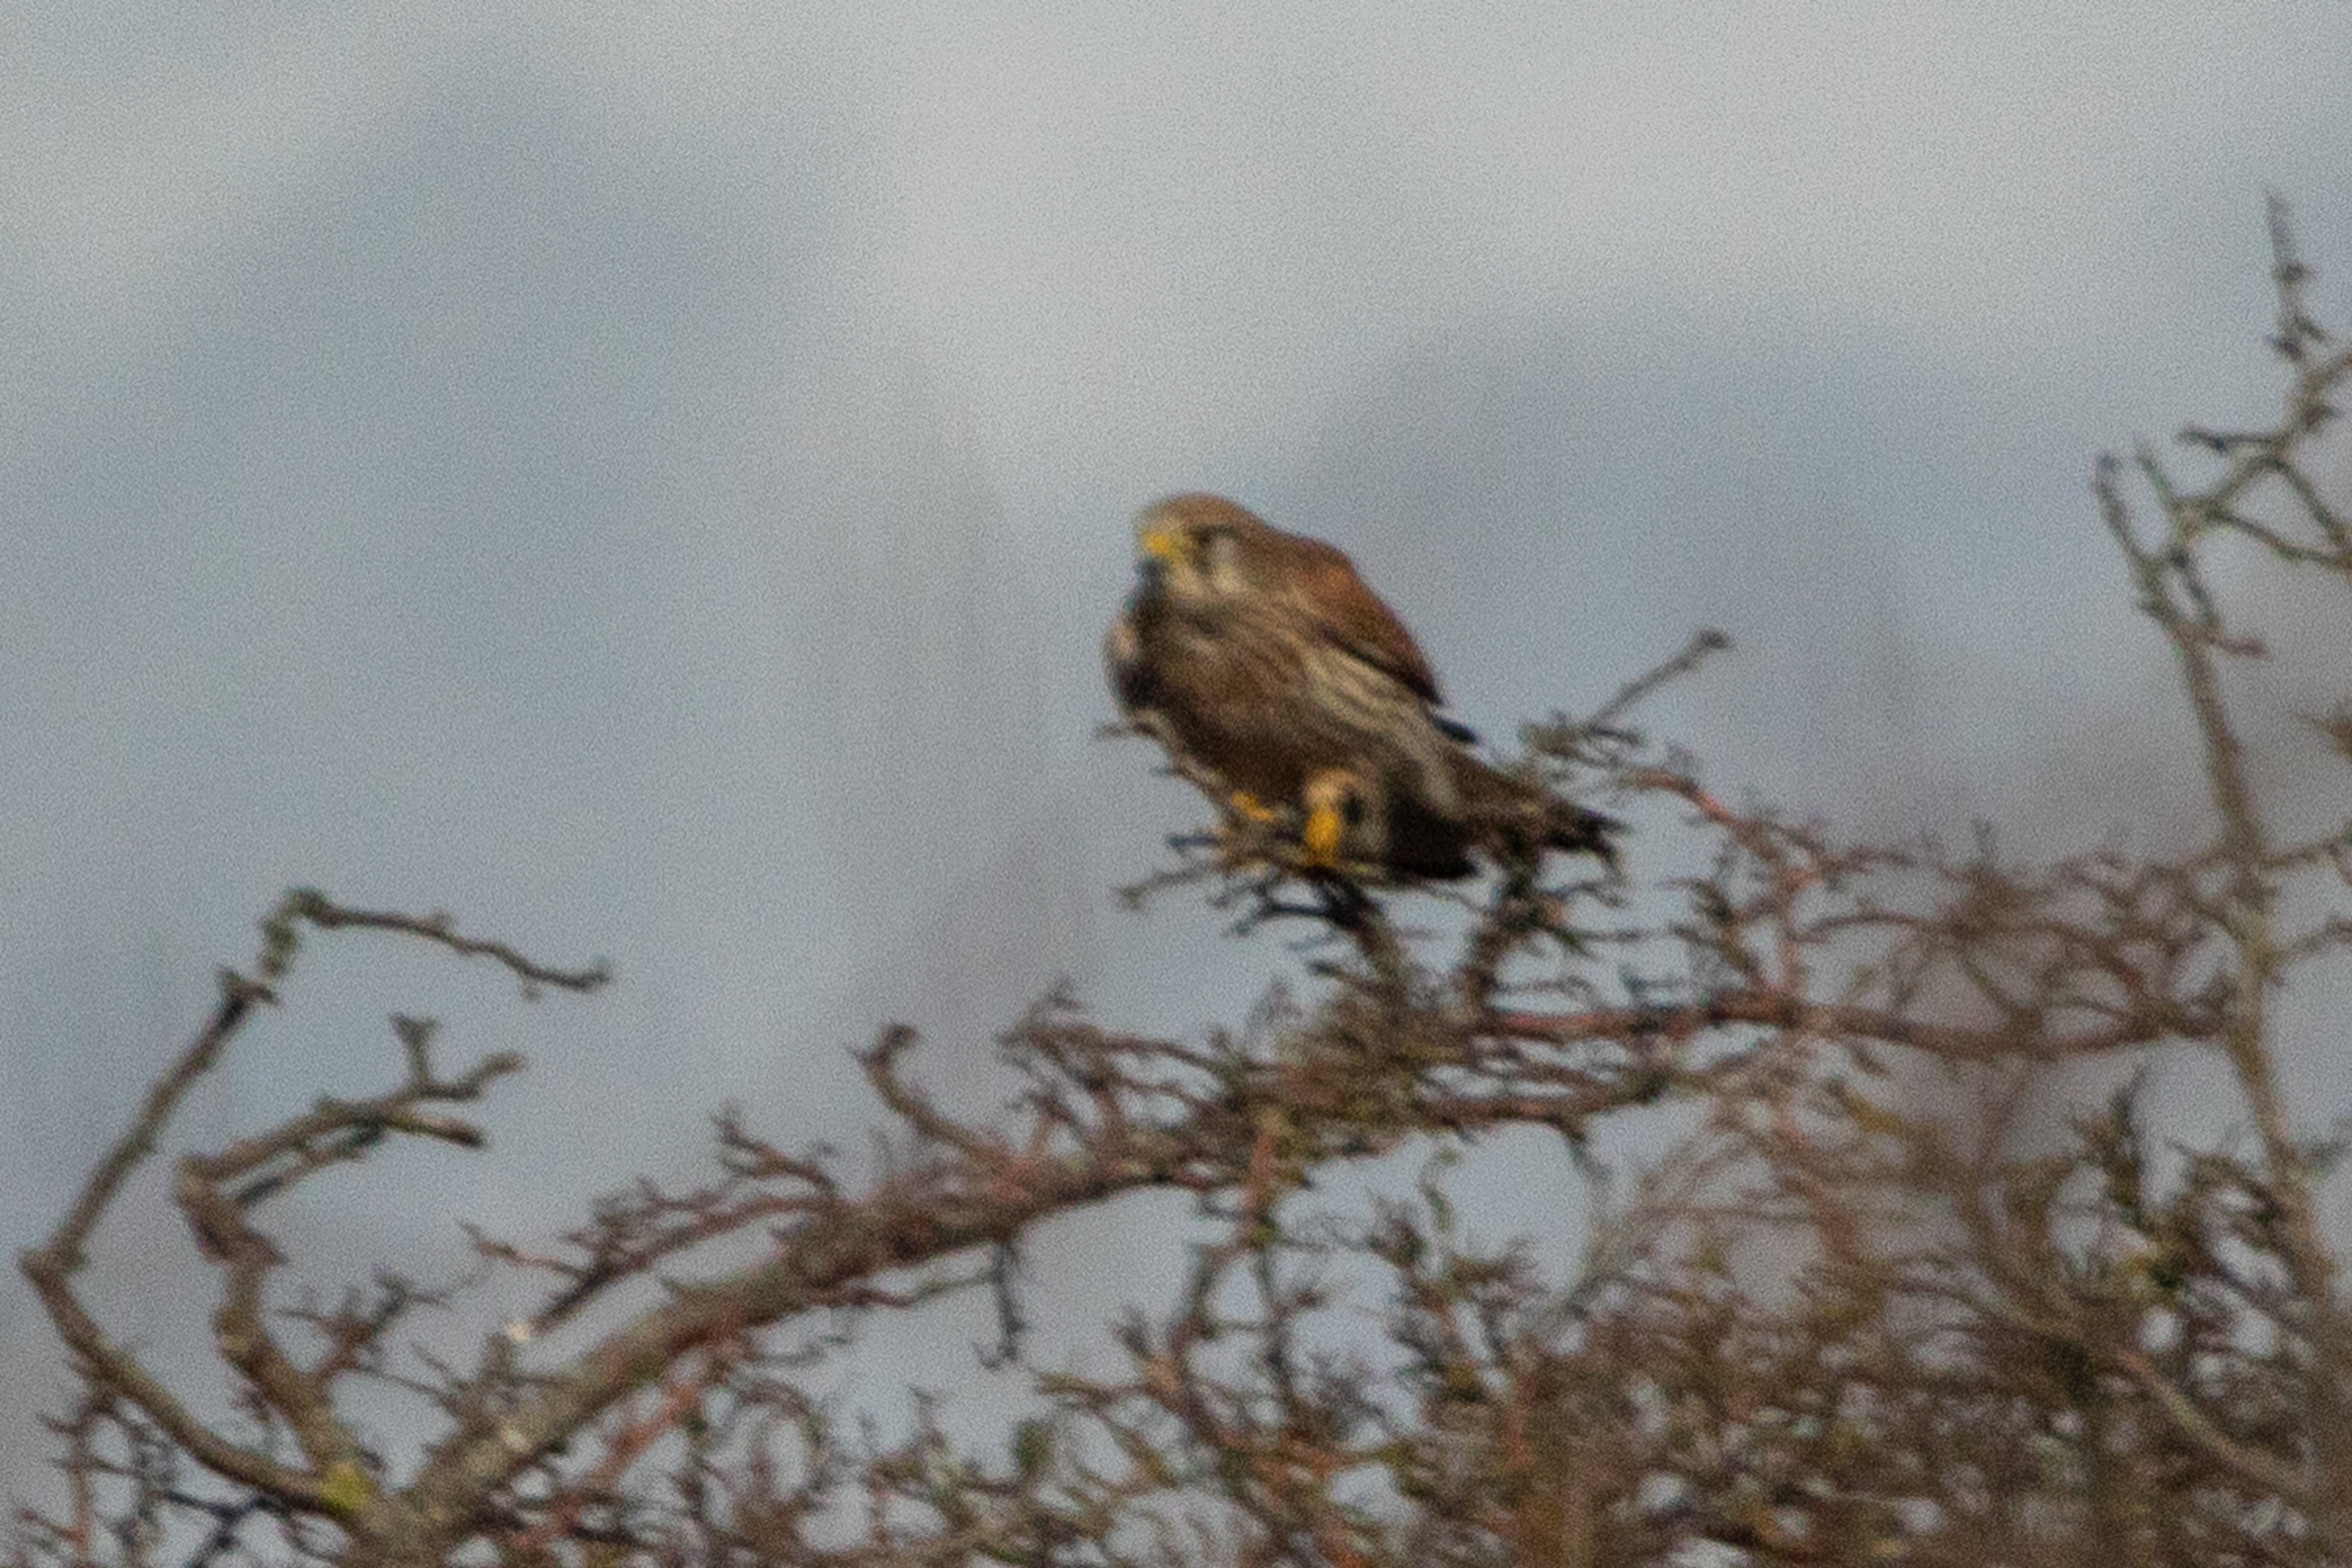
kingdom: Animalia
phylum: Chordata
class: Aves
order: Falconiformes
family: Falconidae
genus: Falco
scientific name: Falco tinnunculus
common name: Tårnfalk
